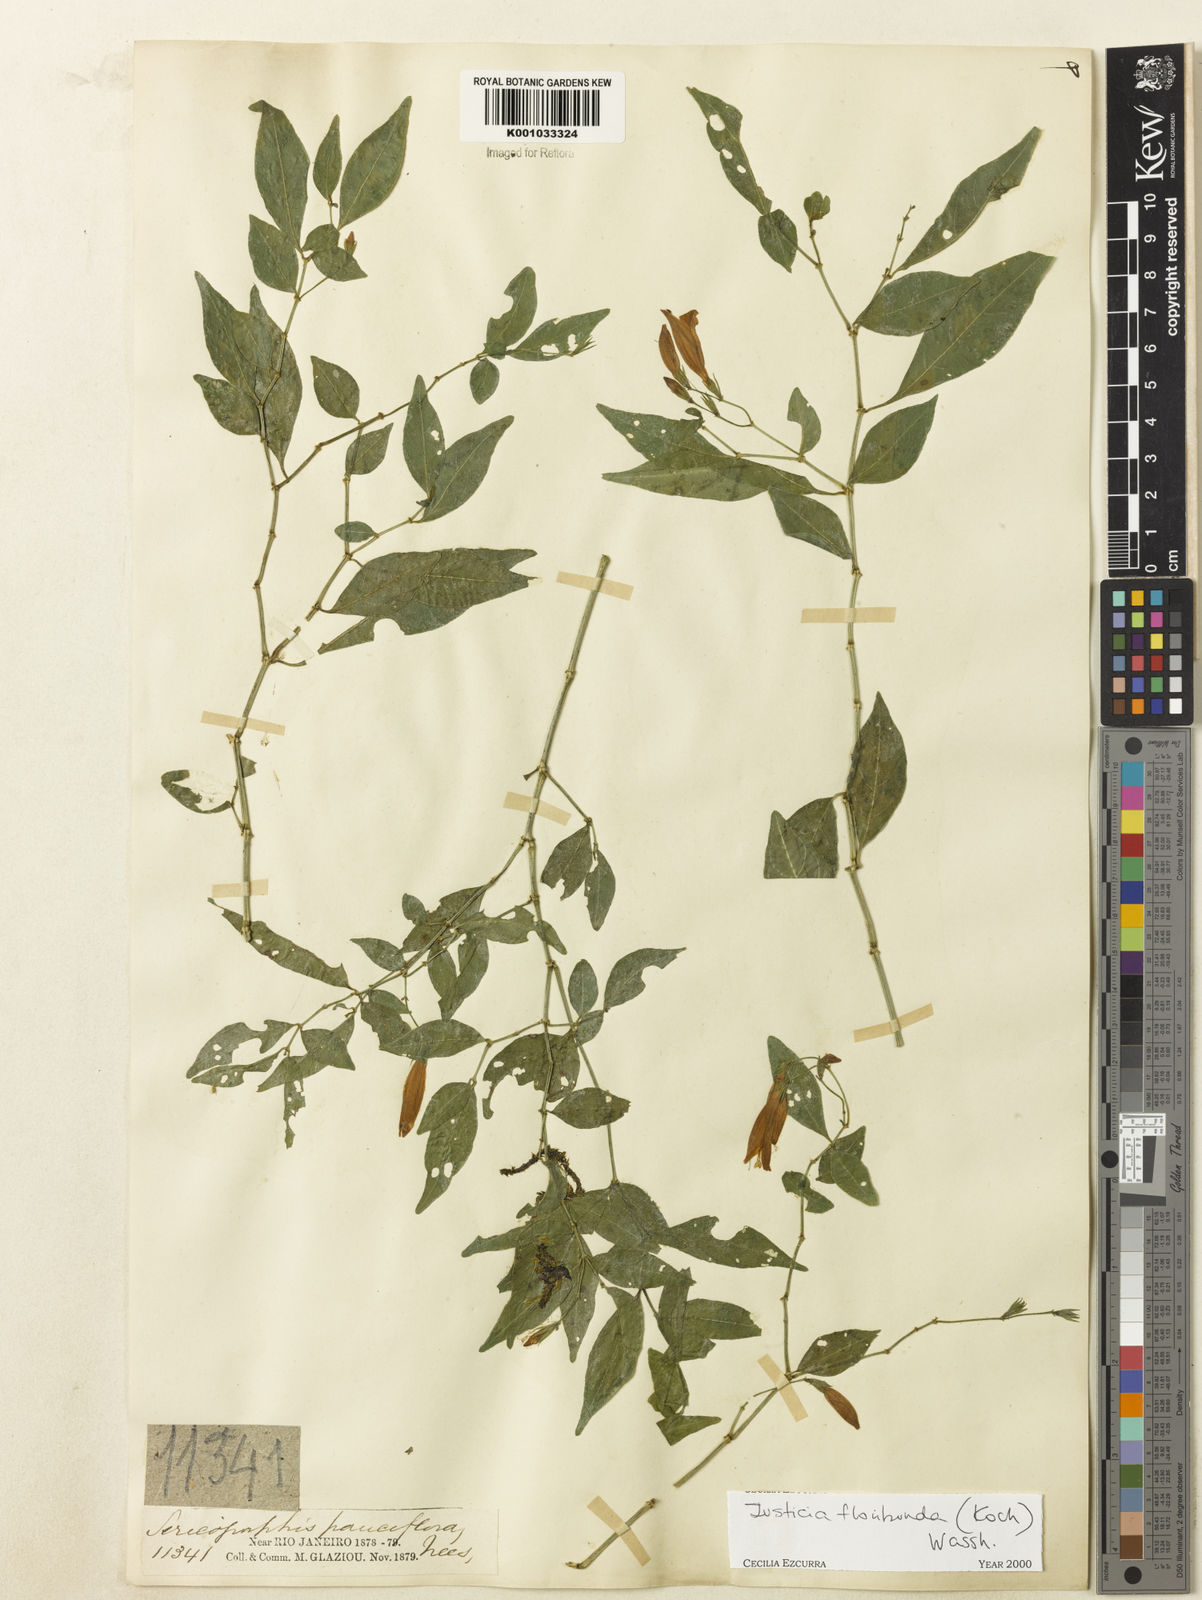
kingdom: Plantae
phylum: Tracheophyta
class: Magnoliopsida
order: Lamiales
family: Acanthaceae
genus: Justicia
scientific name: Justicia floribunda
